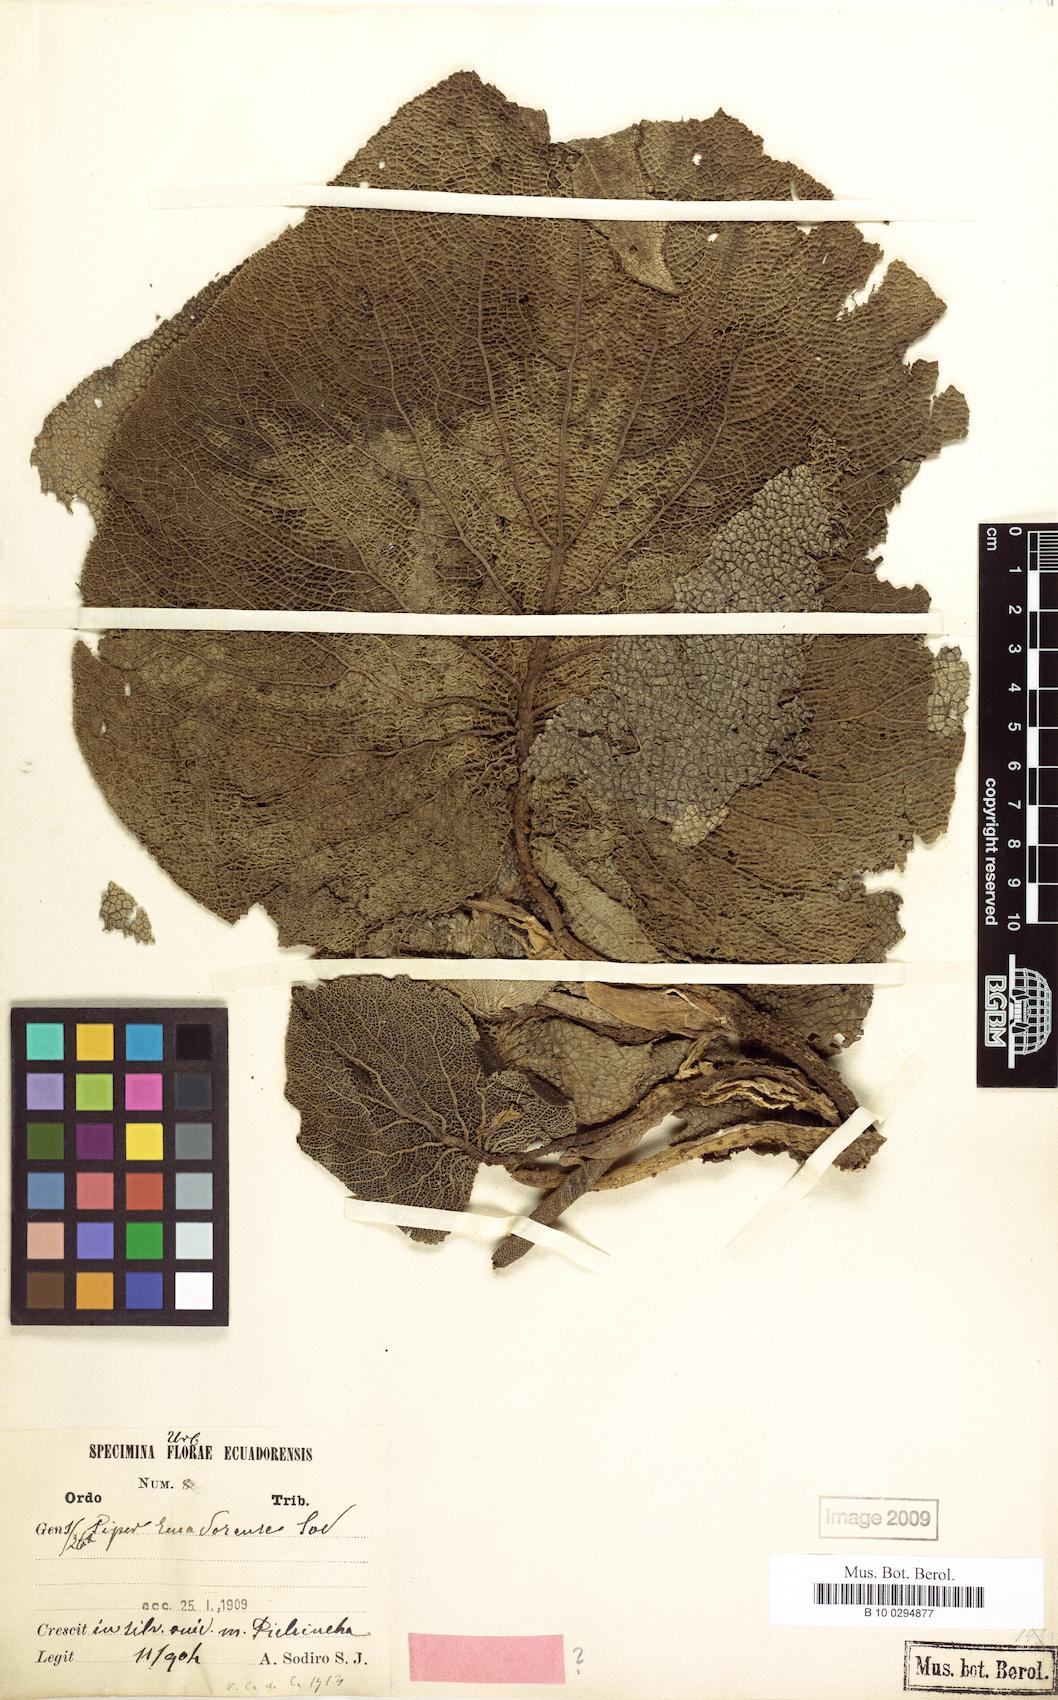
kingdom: Plantae
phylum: Tracheophyta
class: Magnoliopsida
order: Piperales
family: Piperaceae
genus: Piper
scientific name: Piper ecuadorense
